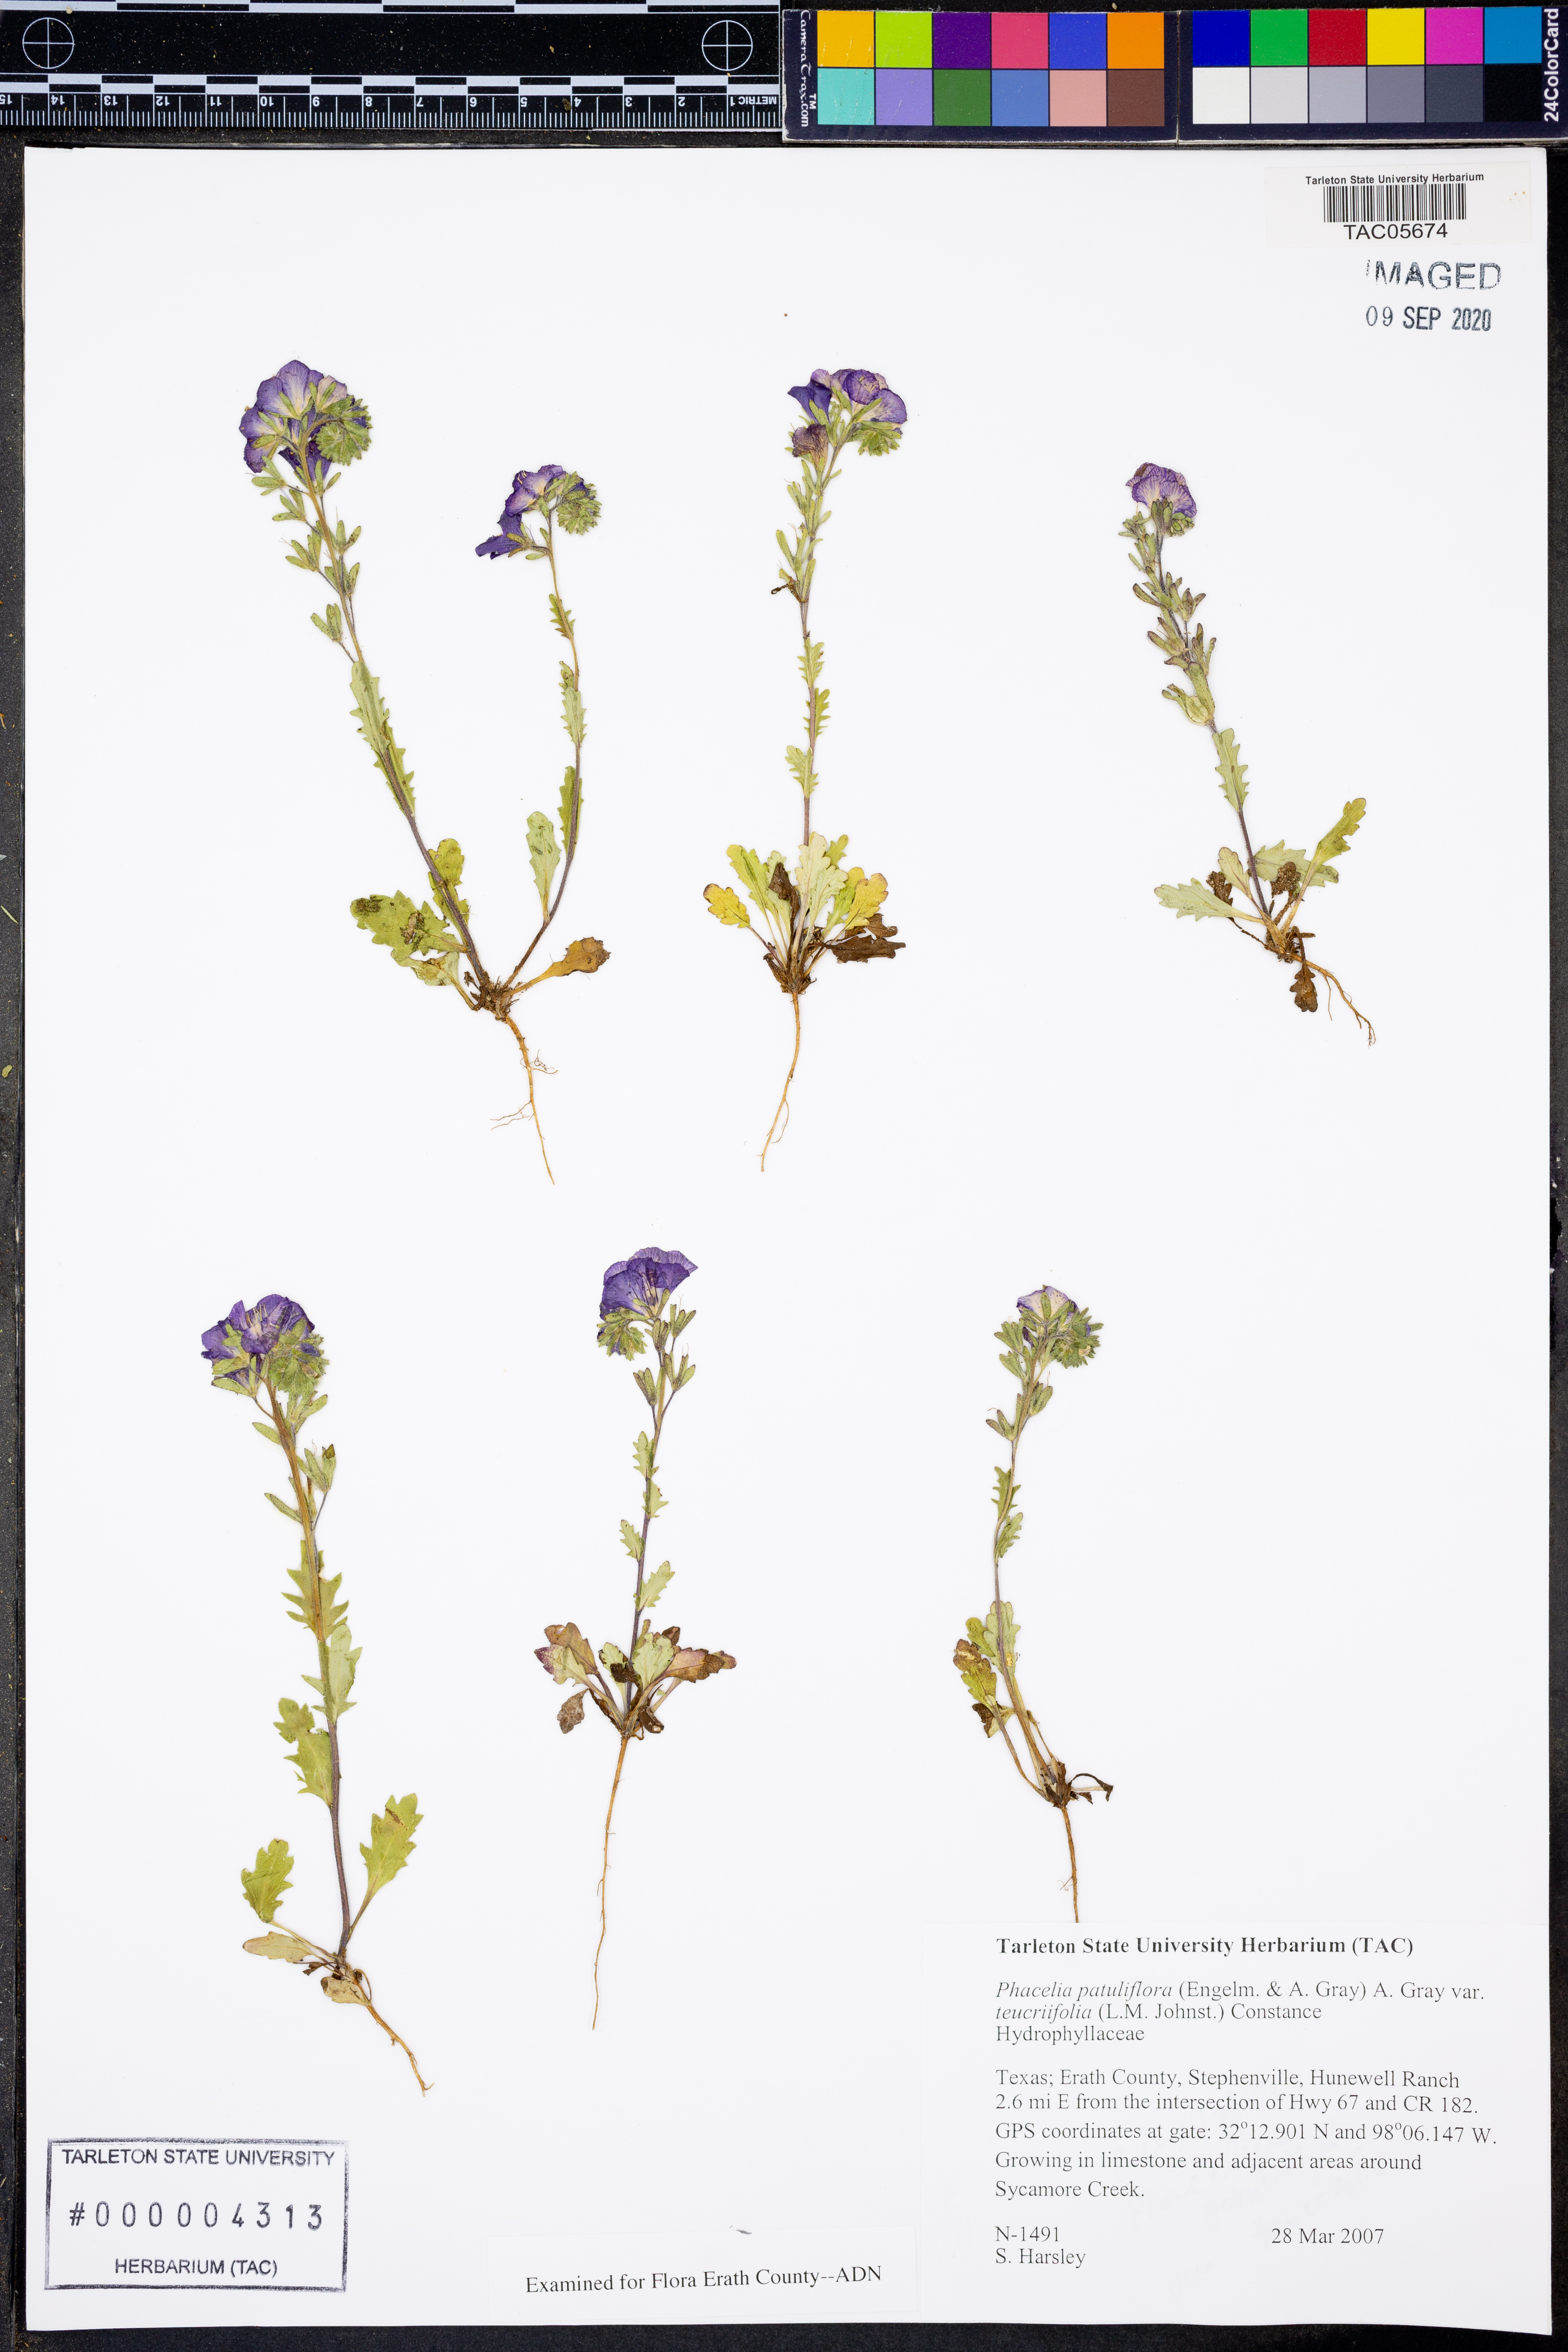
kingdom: Plantae
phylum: Tracheophyta
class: Magnoliopsida
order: Boraginales
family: Hydrophyllaceae
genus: Phacelia
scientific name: Phacelia patuliflora
